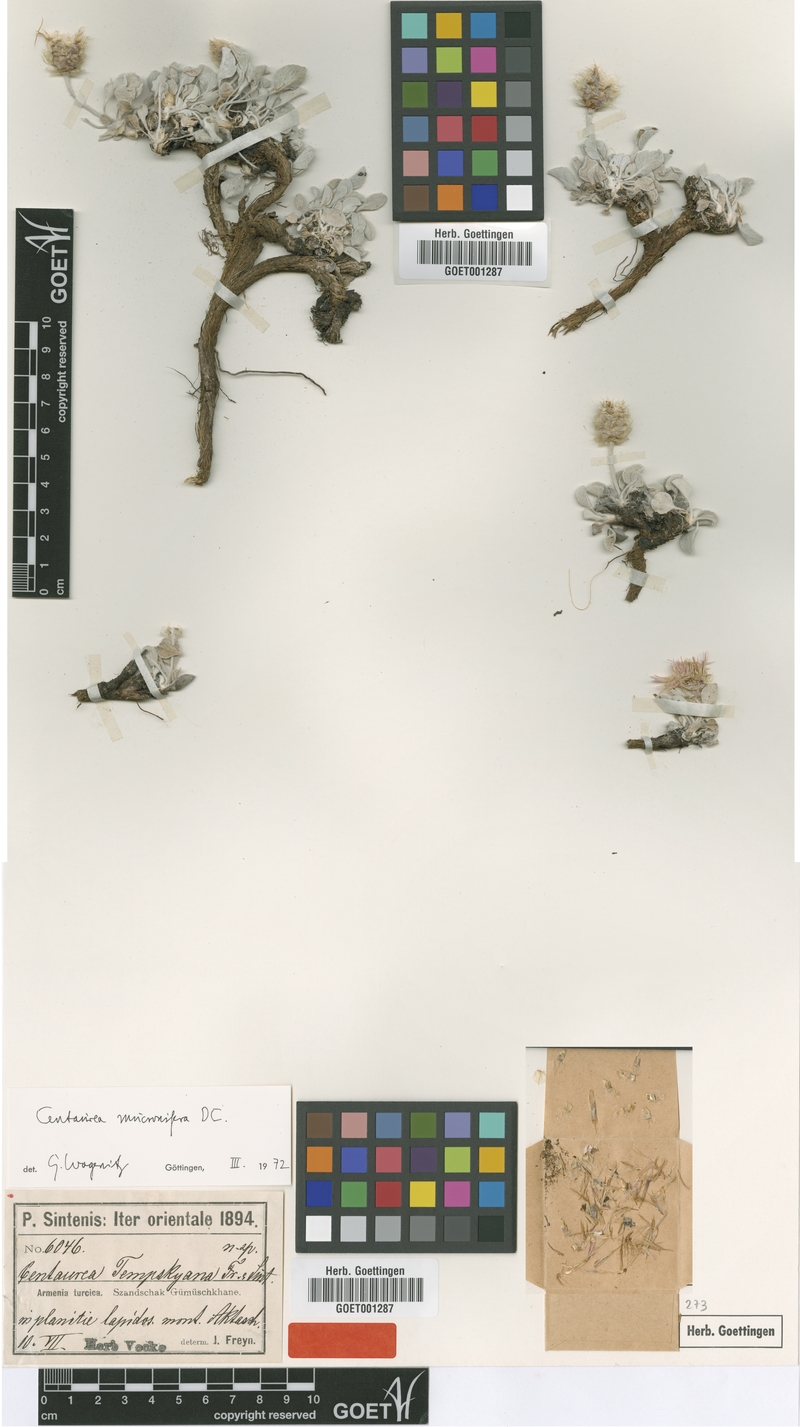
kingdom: Plantae
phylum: Tracheophyta
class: Magnoliopsida
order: Asterales
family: Asteraceae
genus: Psephellus
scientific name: Psephellus mucronifer
